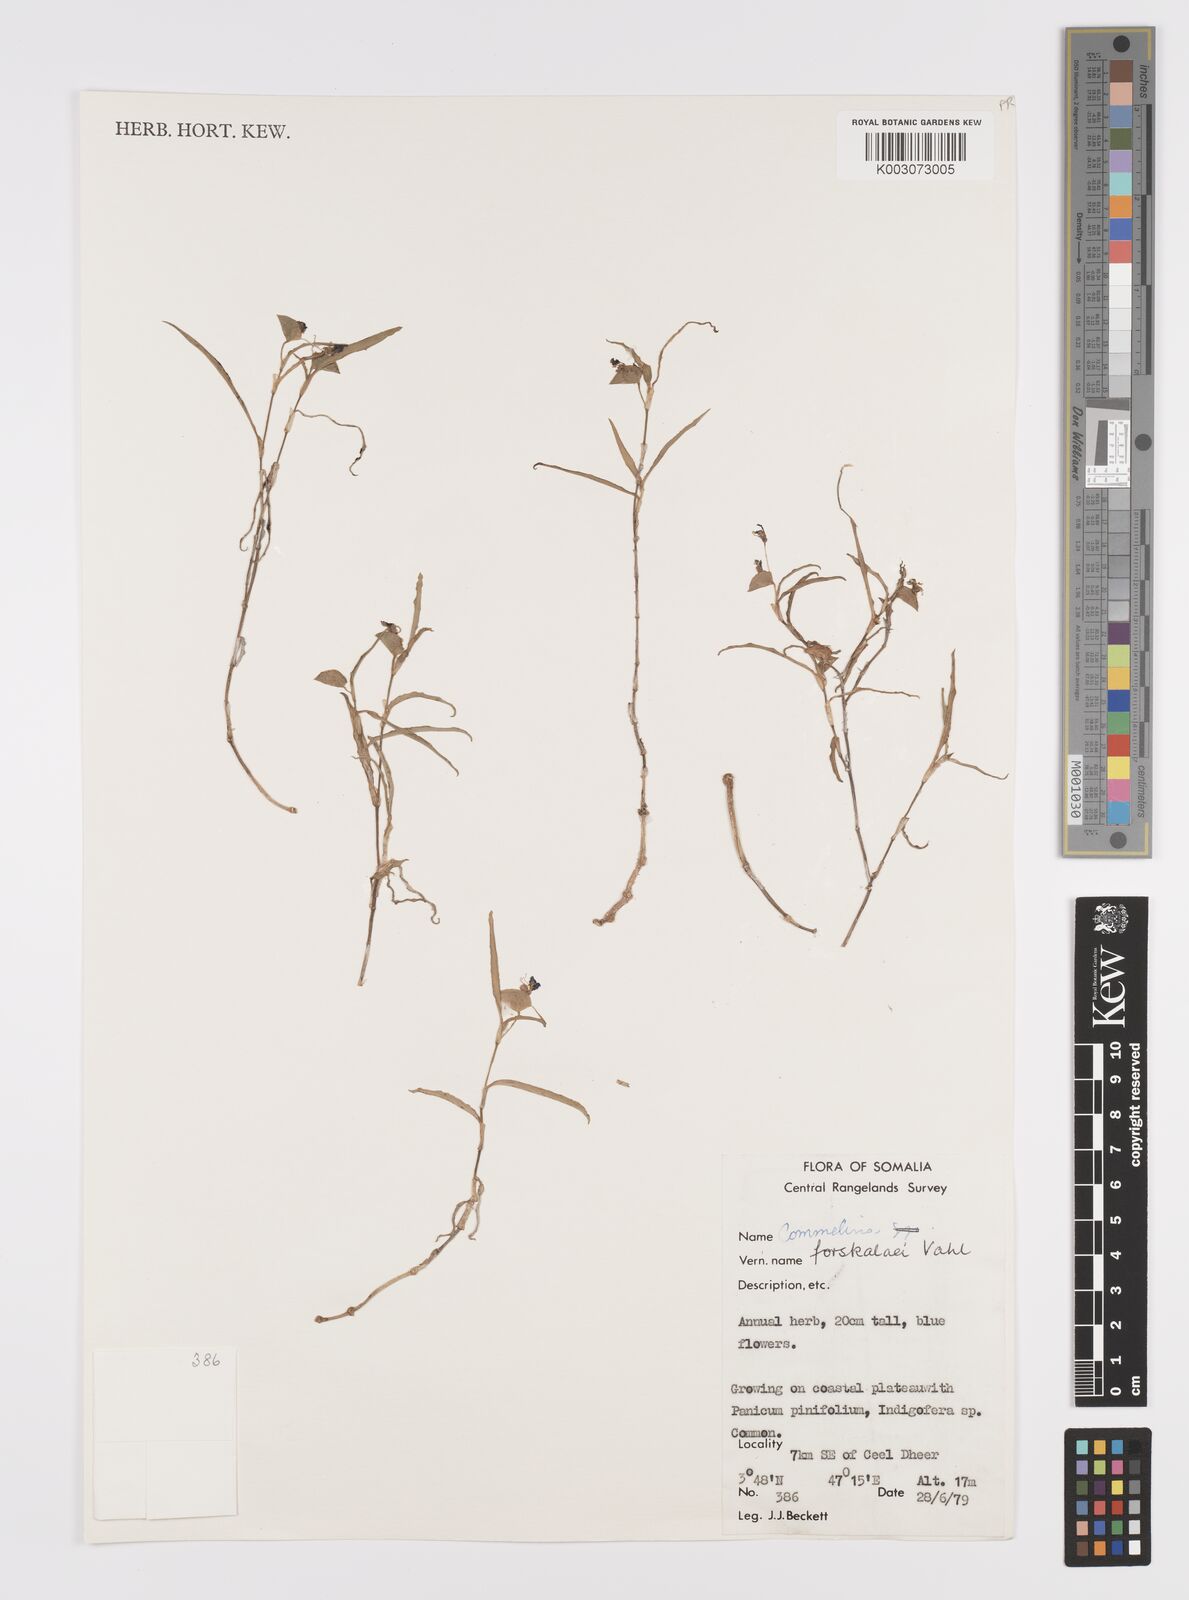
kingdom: Plantae
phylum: Tracheophyta
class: Liliopsida
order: Commelinales
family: Commelinaceae
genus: Commelina
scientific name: Commelina forskaolii
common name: Rat's ear
